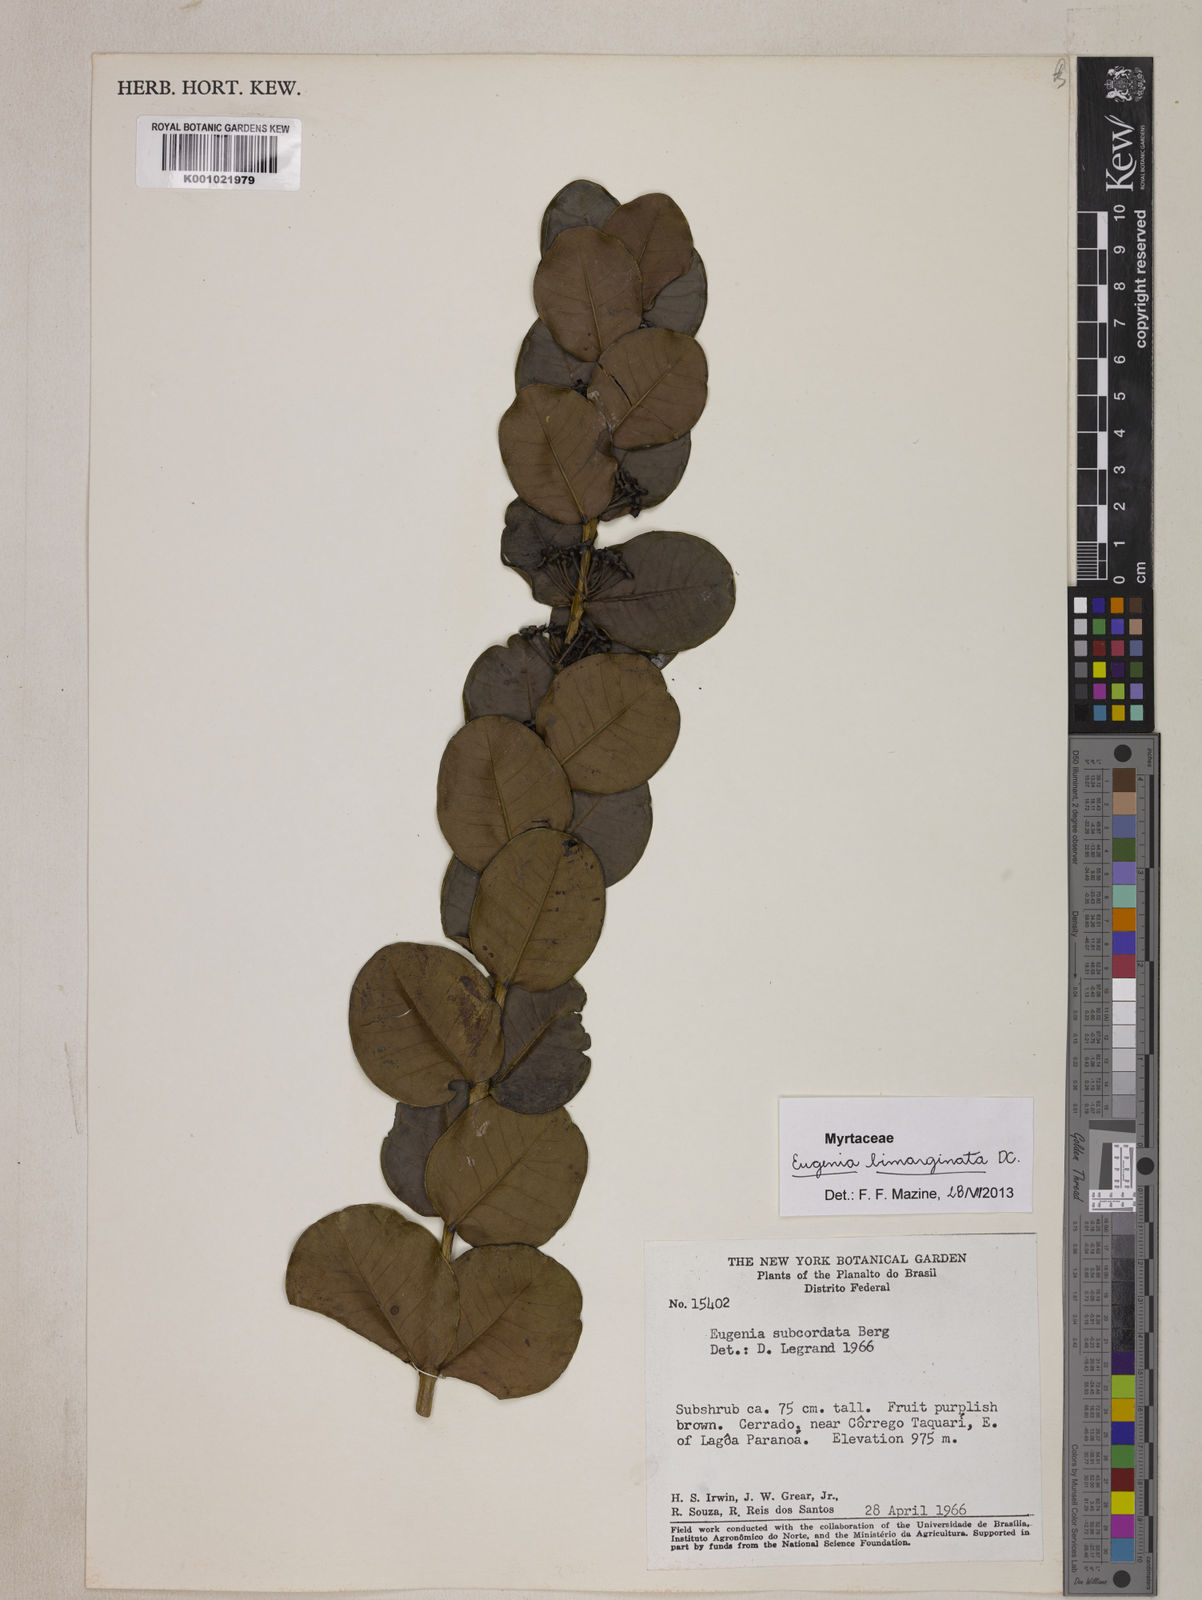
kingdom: Plantae
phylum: Tracheophyta
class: Magnoliopsida
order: Myrtales
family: Myrtaceae
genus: Eugenia
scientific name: Eugenia bimarginata
